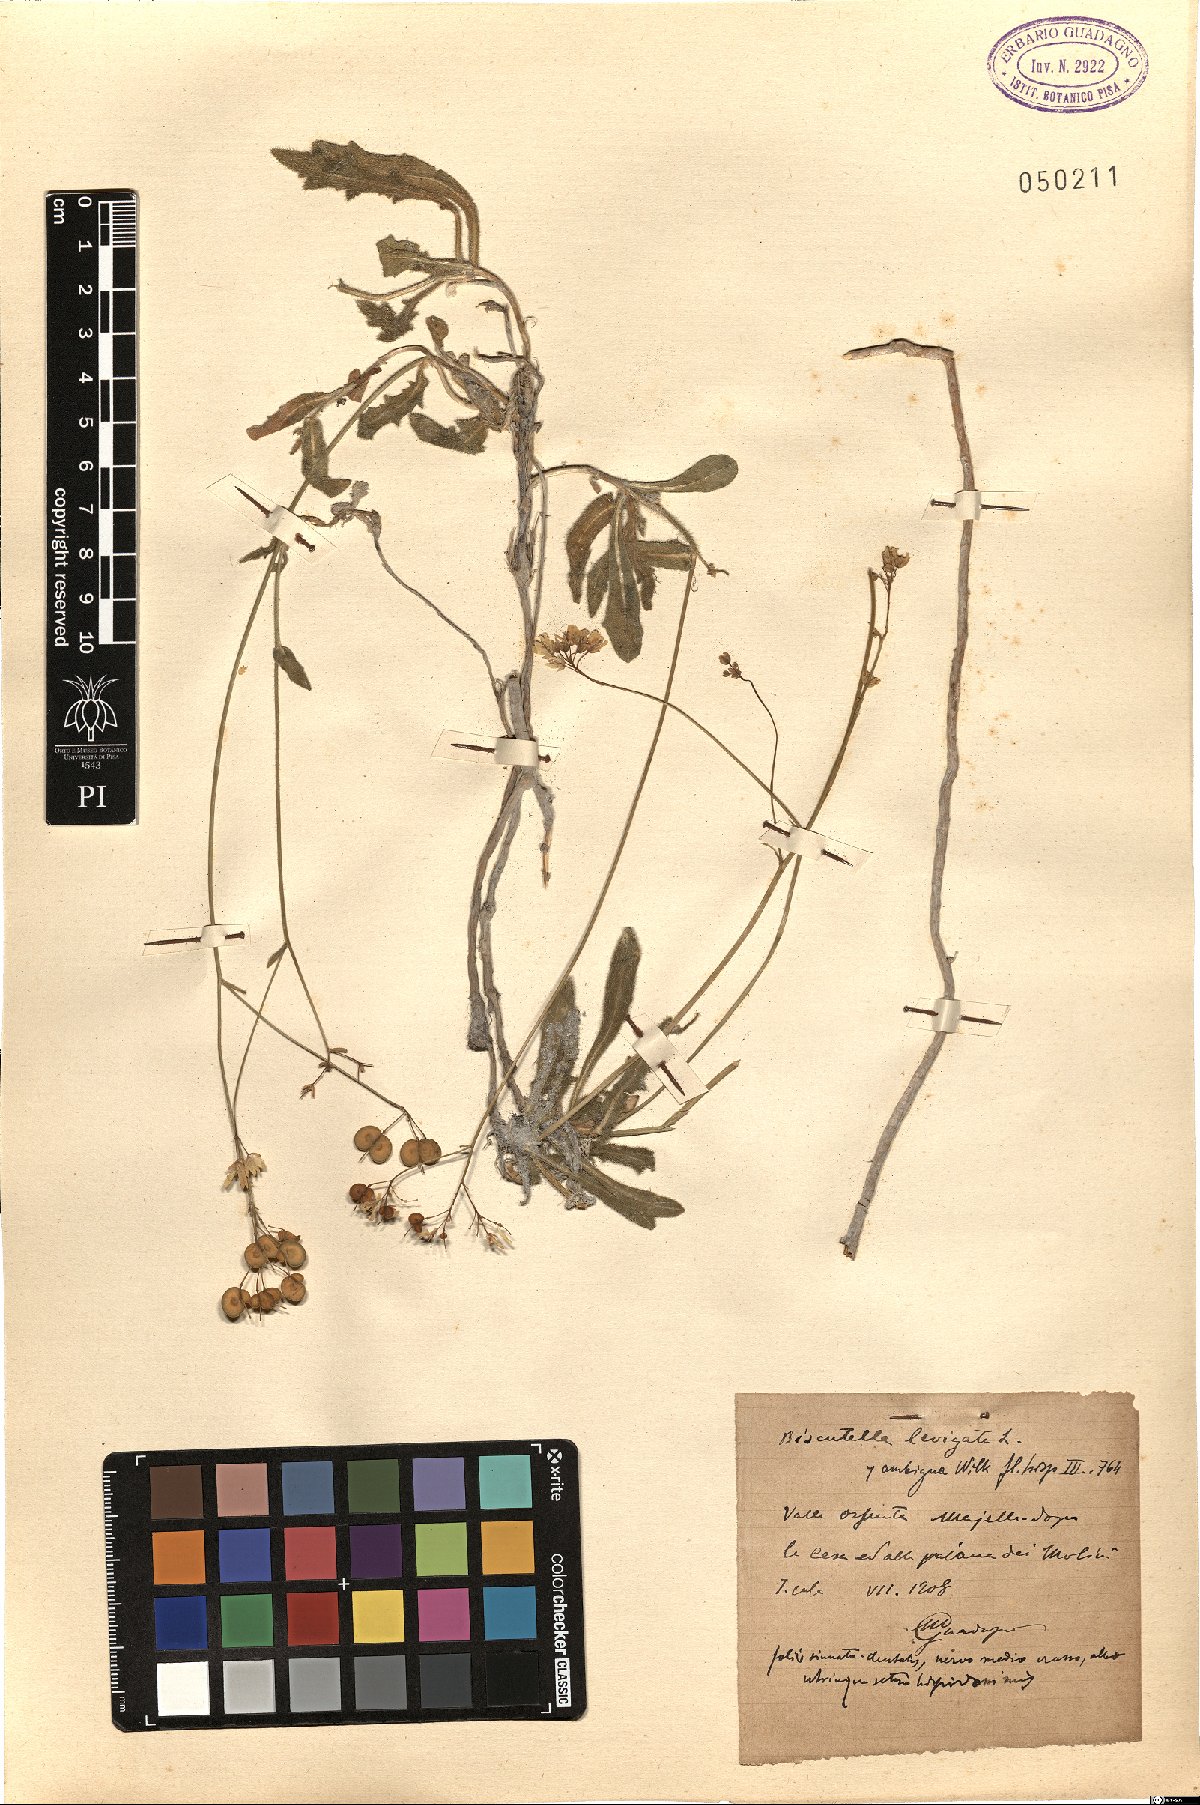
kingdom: Plantae
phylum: Tracheophyta
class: Magnoliopsida
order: Brassicales
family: Brassicaceae
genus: Biscutella
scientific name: Biscutella laevigata
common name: Buckler mustard
